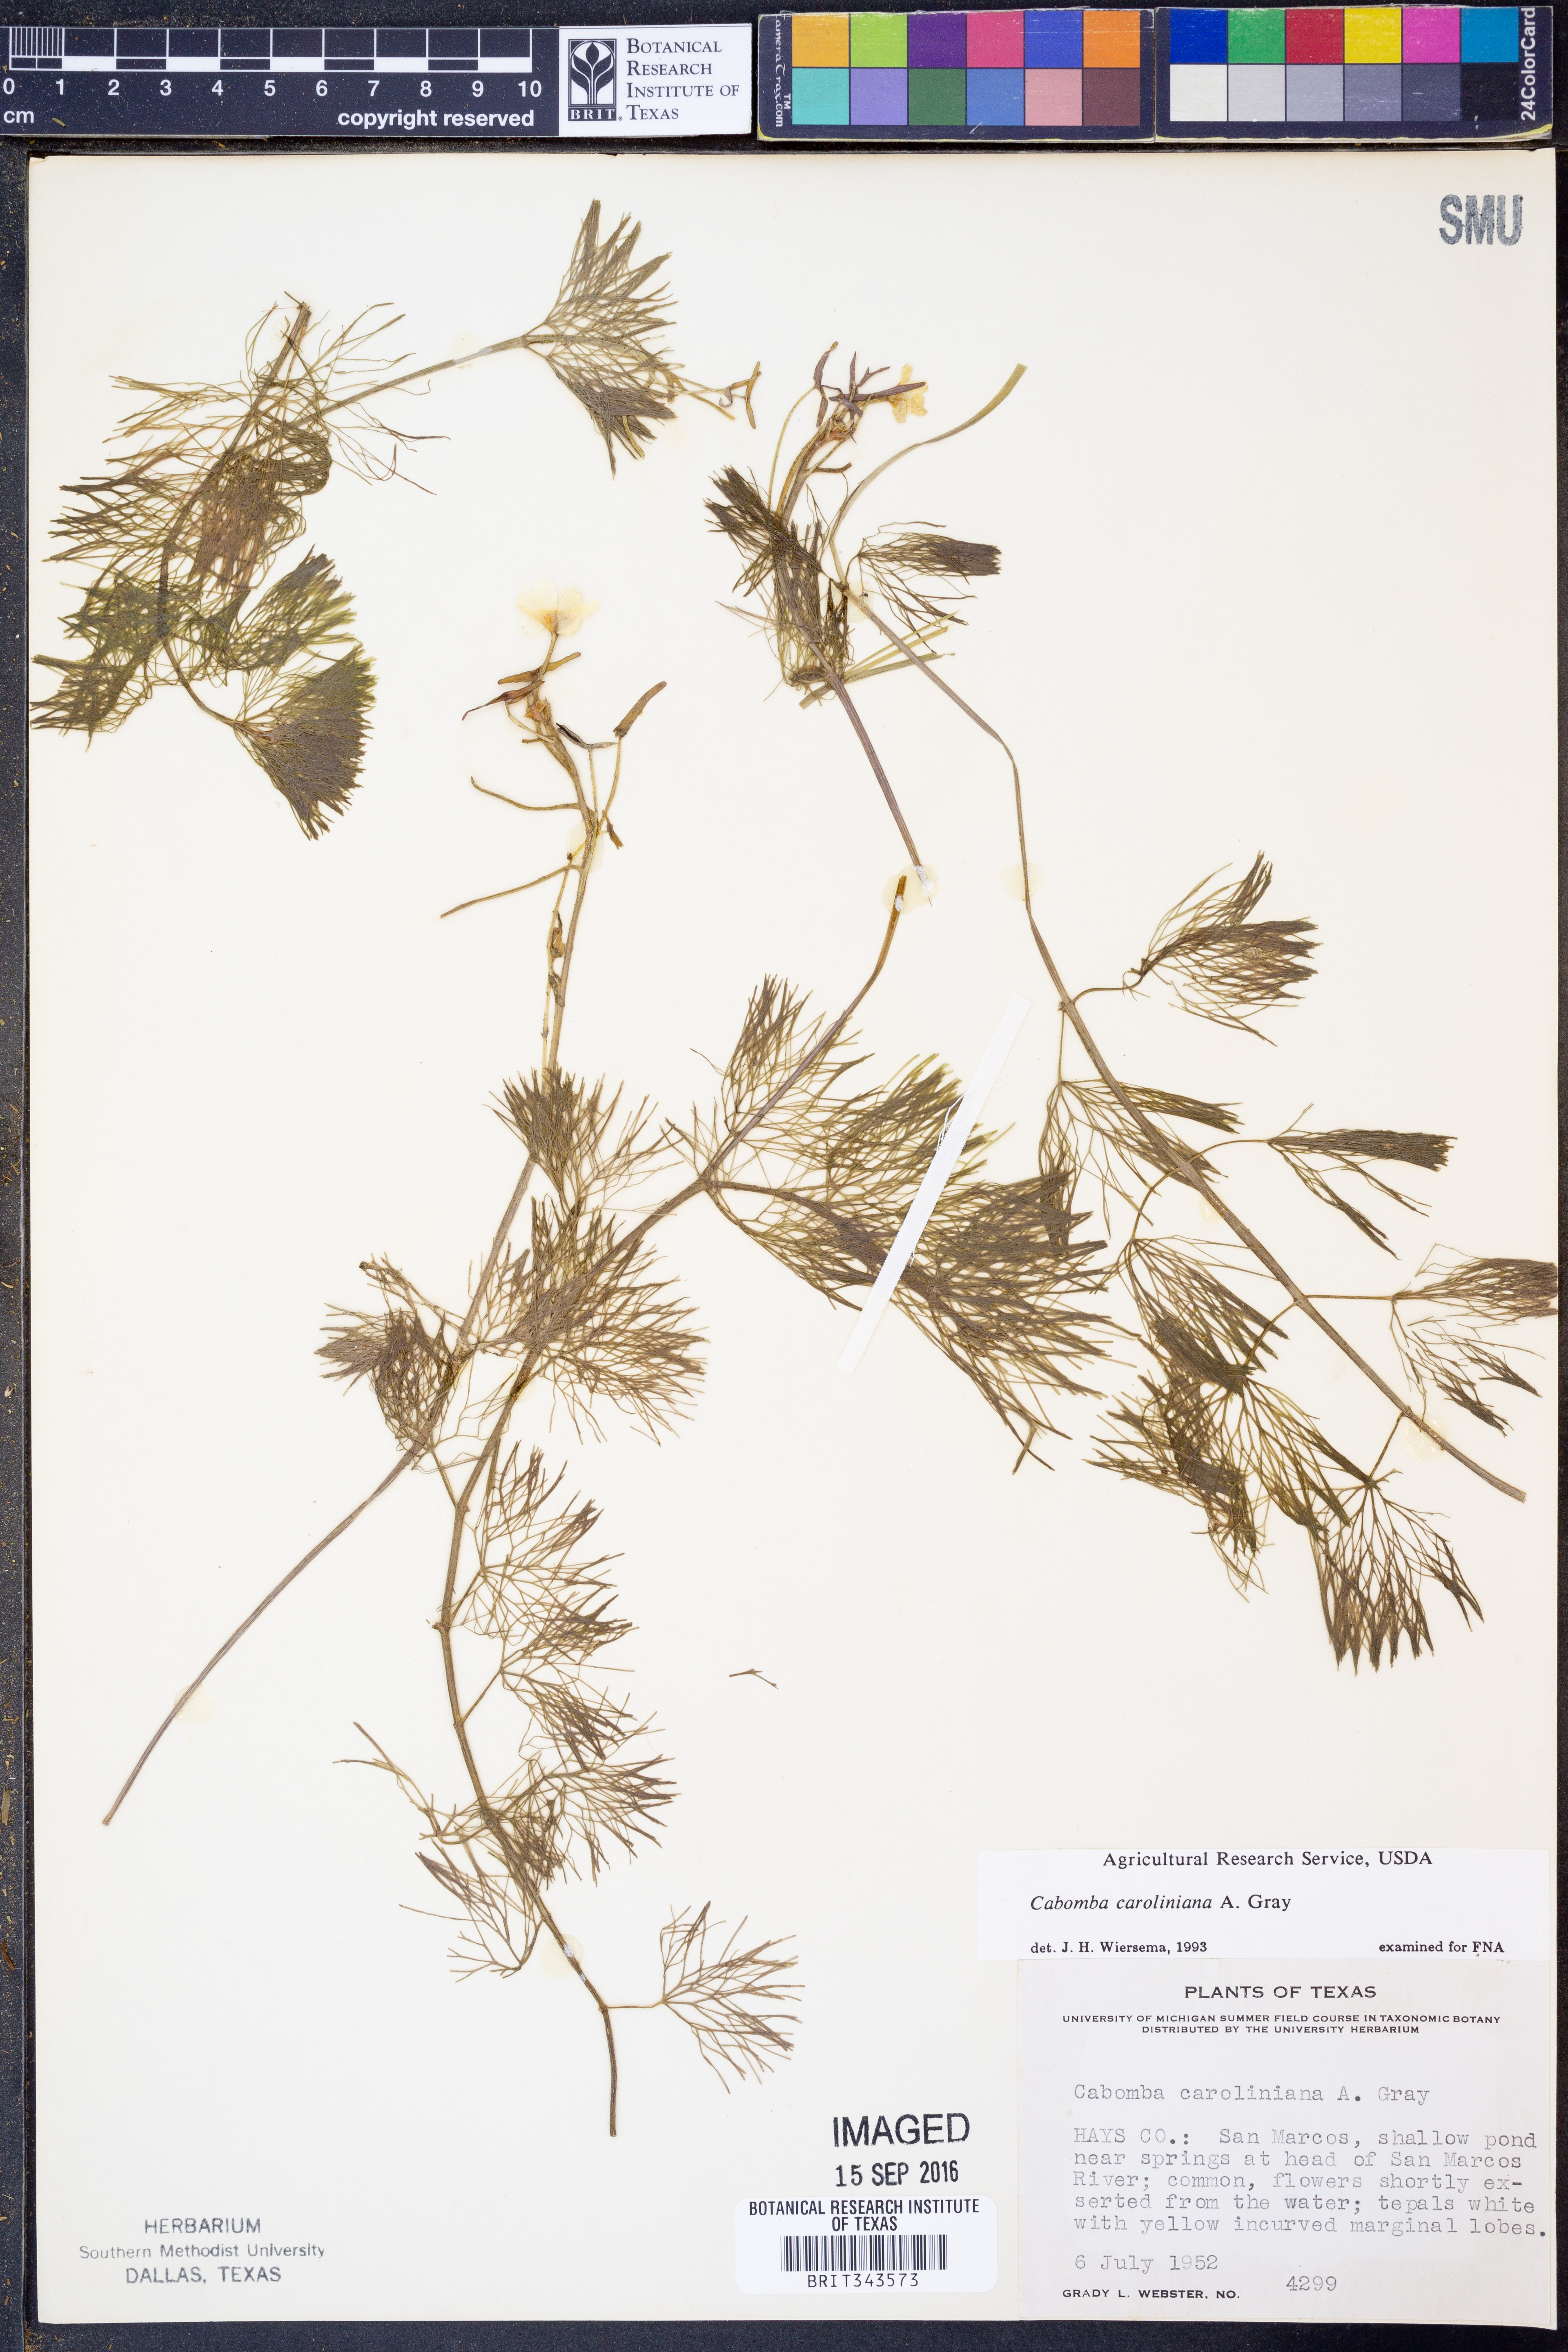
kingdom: Plantae
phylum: Tracheophyta
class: Magnoliopsida
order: Nymphaeales
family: Cabombaceae
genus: Cabomba
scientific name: Cabomba caroliniana
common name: Fanwort
